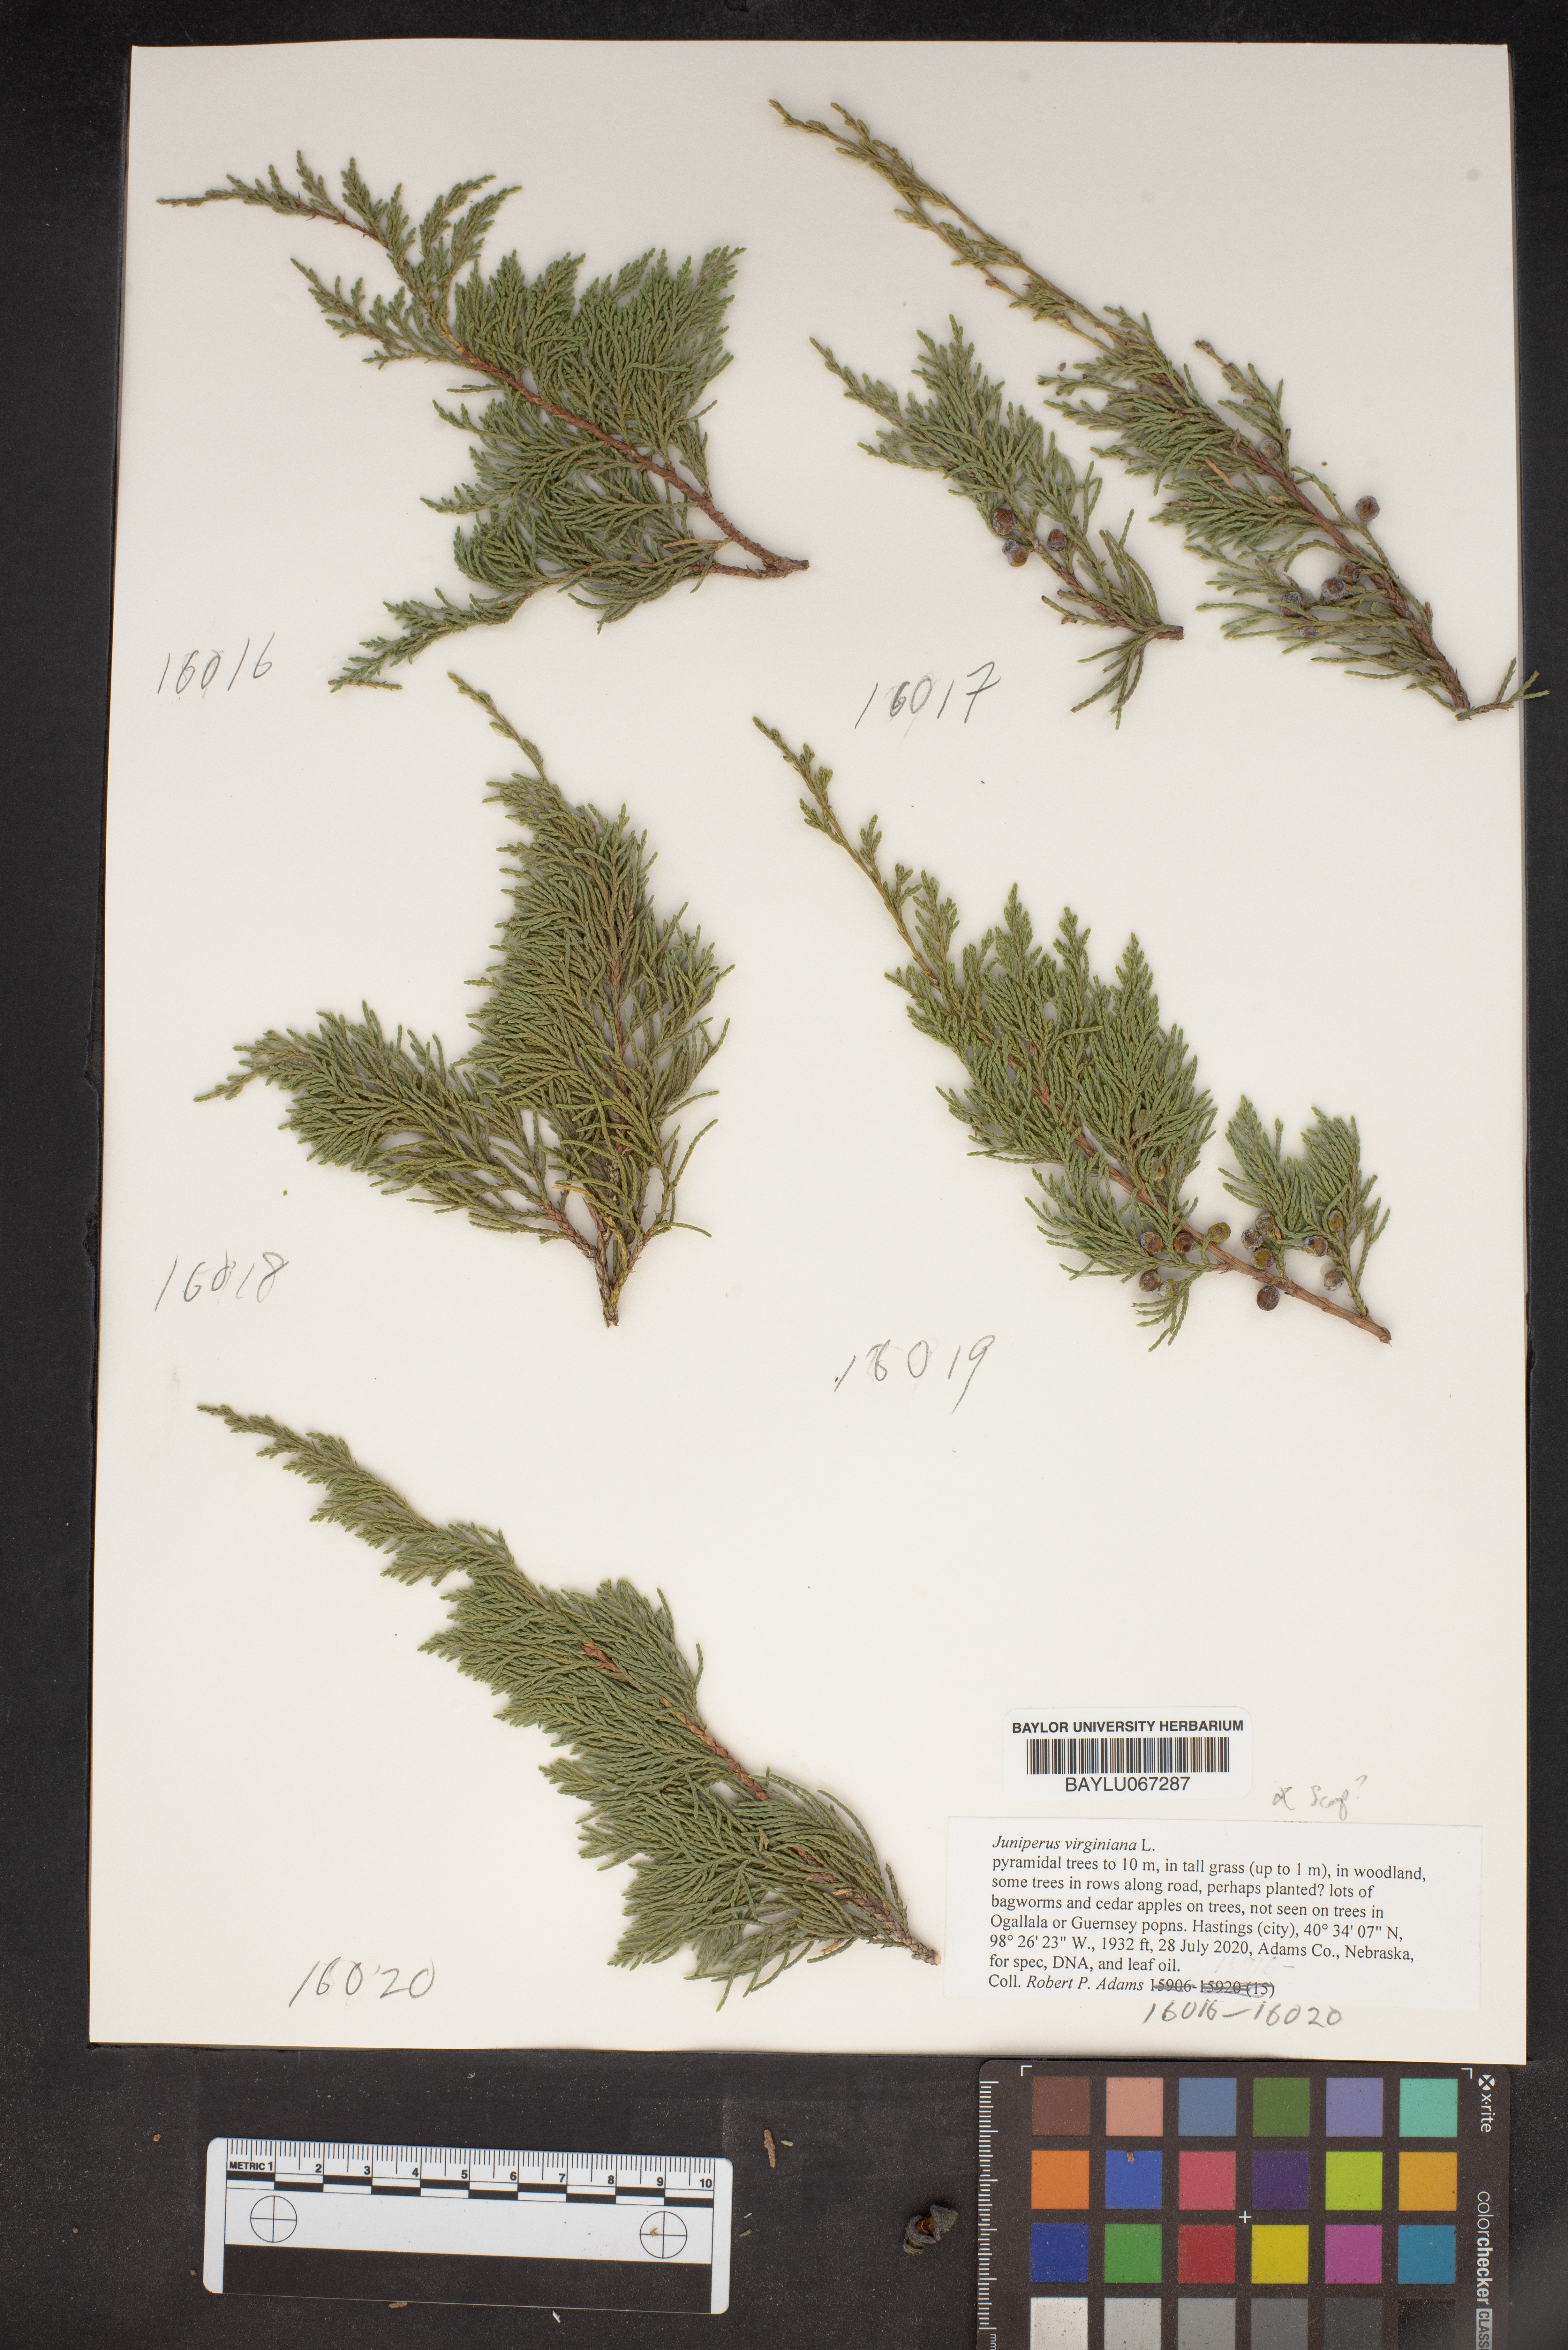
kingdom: Plantae
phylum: Tracheophyta
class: Pinopsida
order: Pinales
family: Cupressaceae
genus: Juniperus
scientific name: Juniperus virginiana
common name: Red juniper
